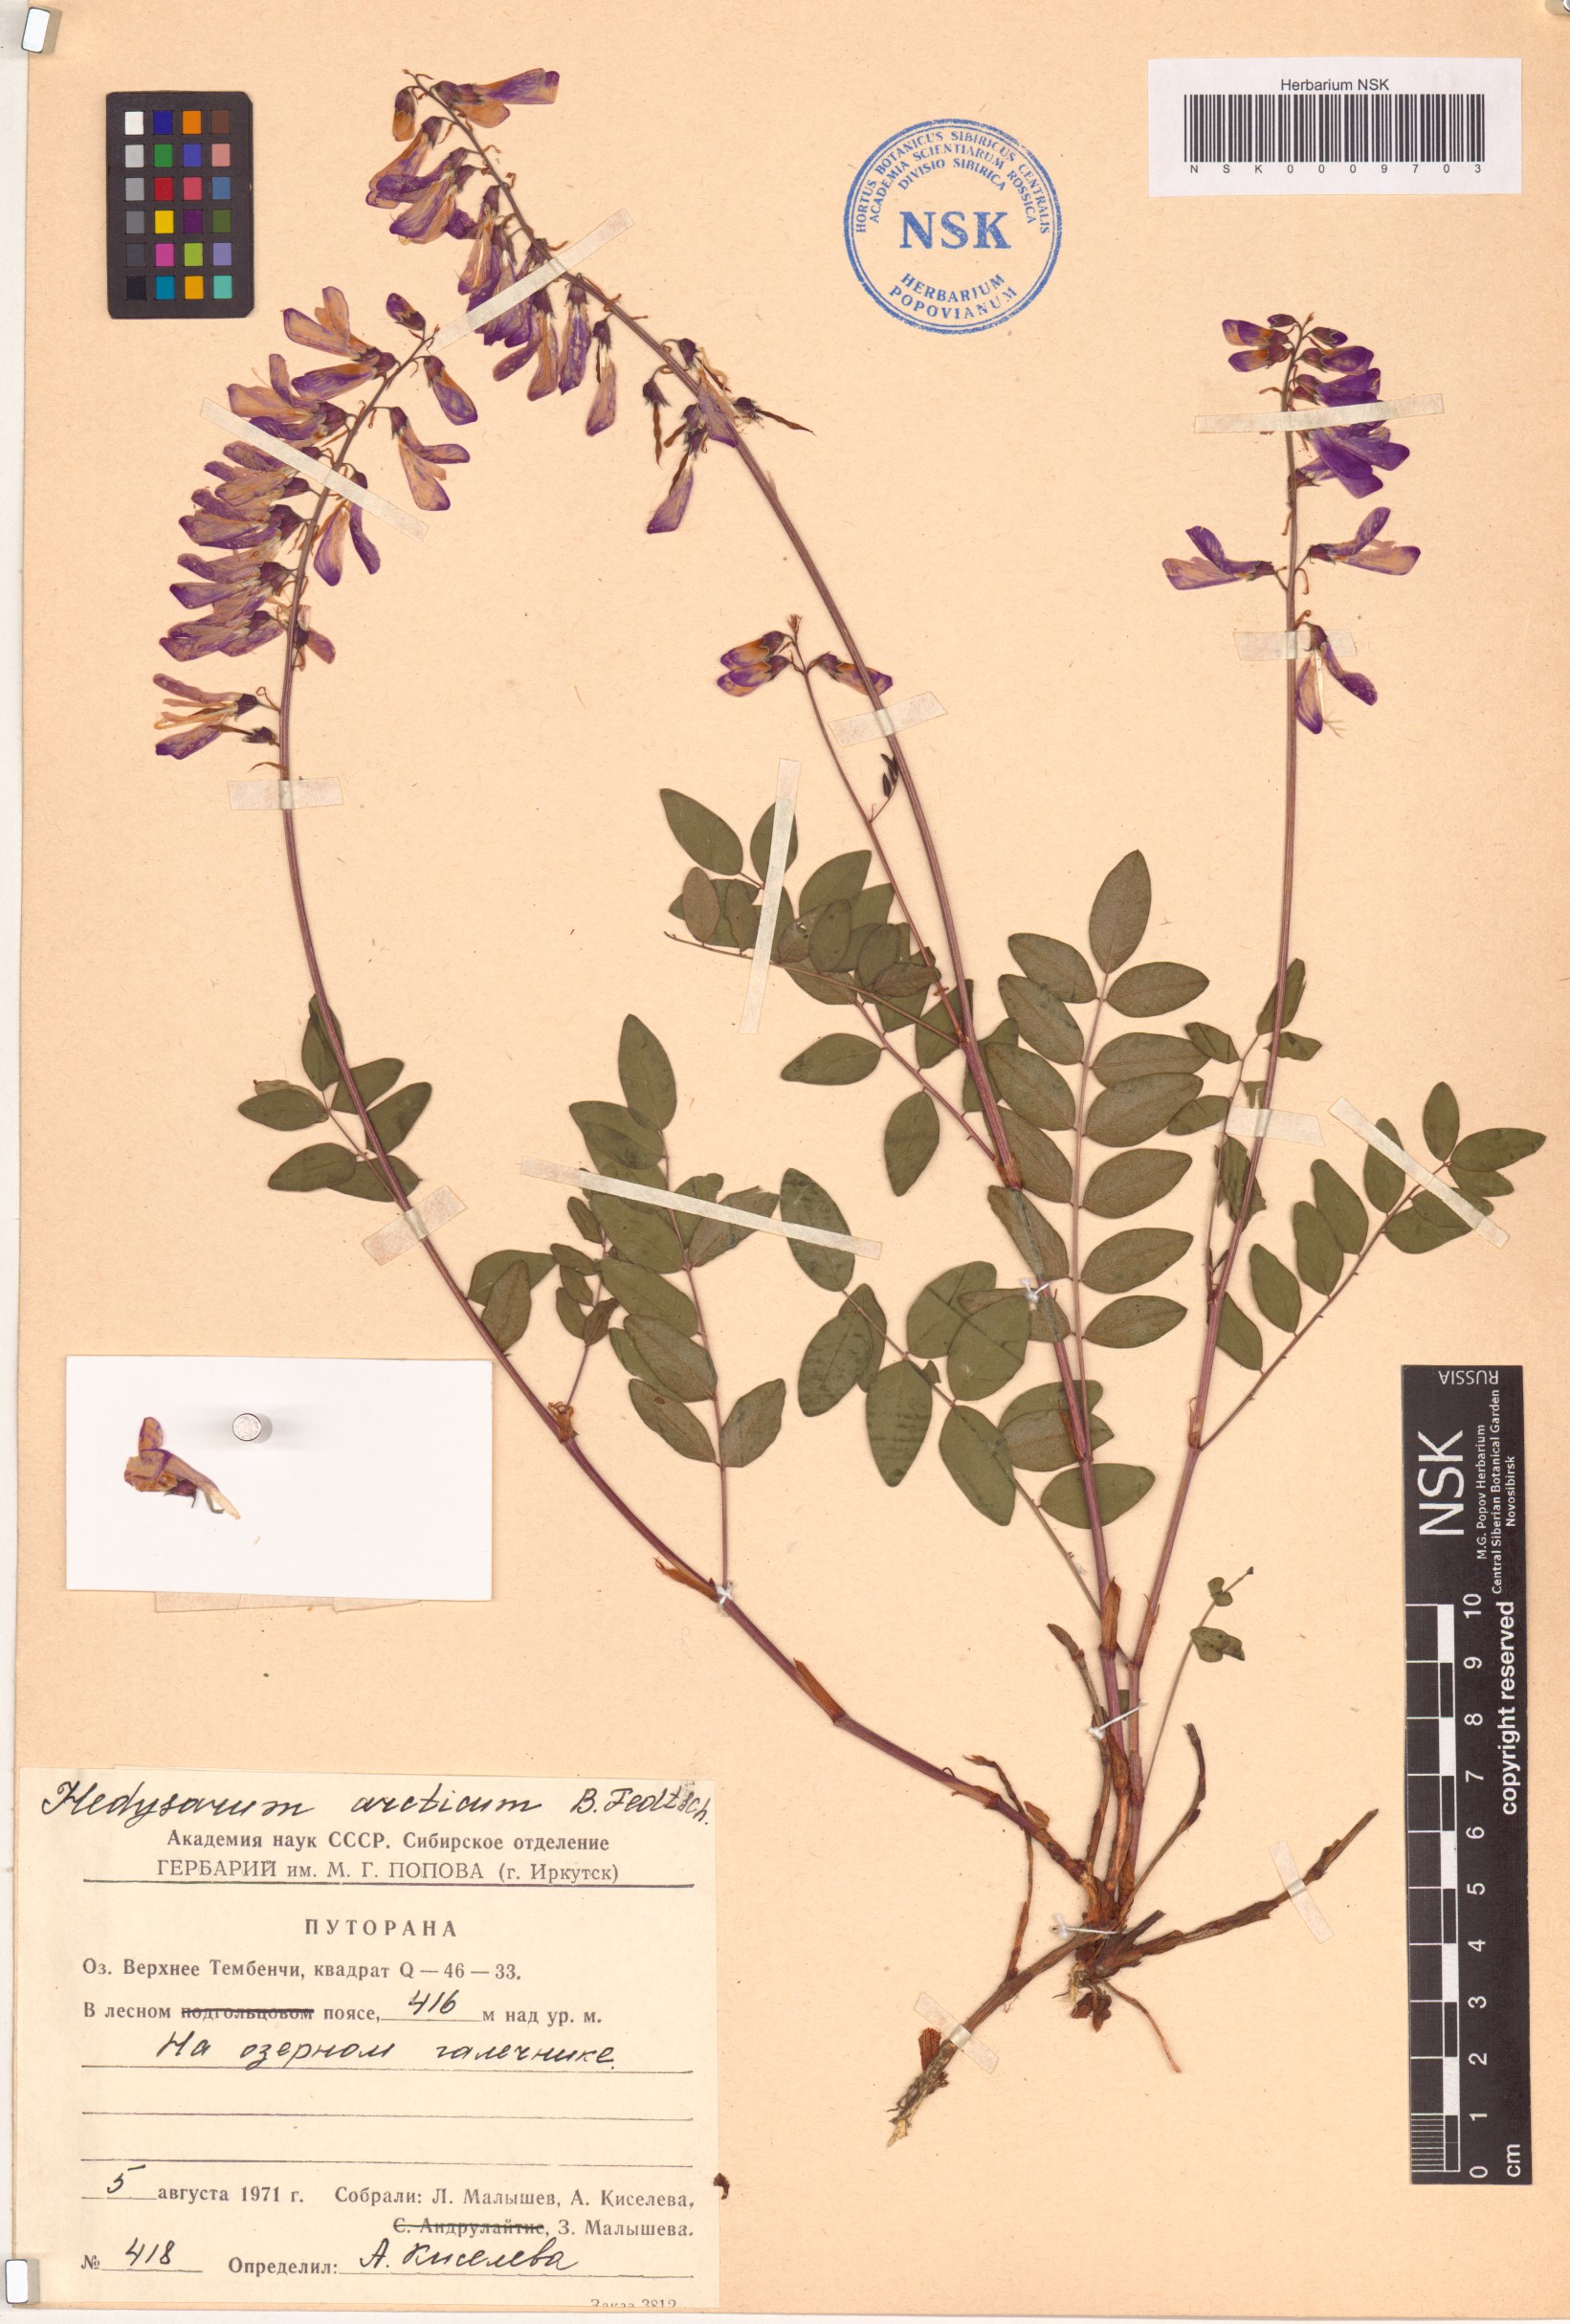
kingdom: Plantae
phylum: Tracheophyta
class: Magnoliopsida
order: Fabales
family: Fabaceae
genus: Hedysarum
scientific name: Hedysarum hedysaroides
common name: Alpine french-honeysuckle
